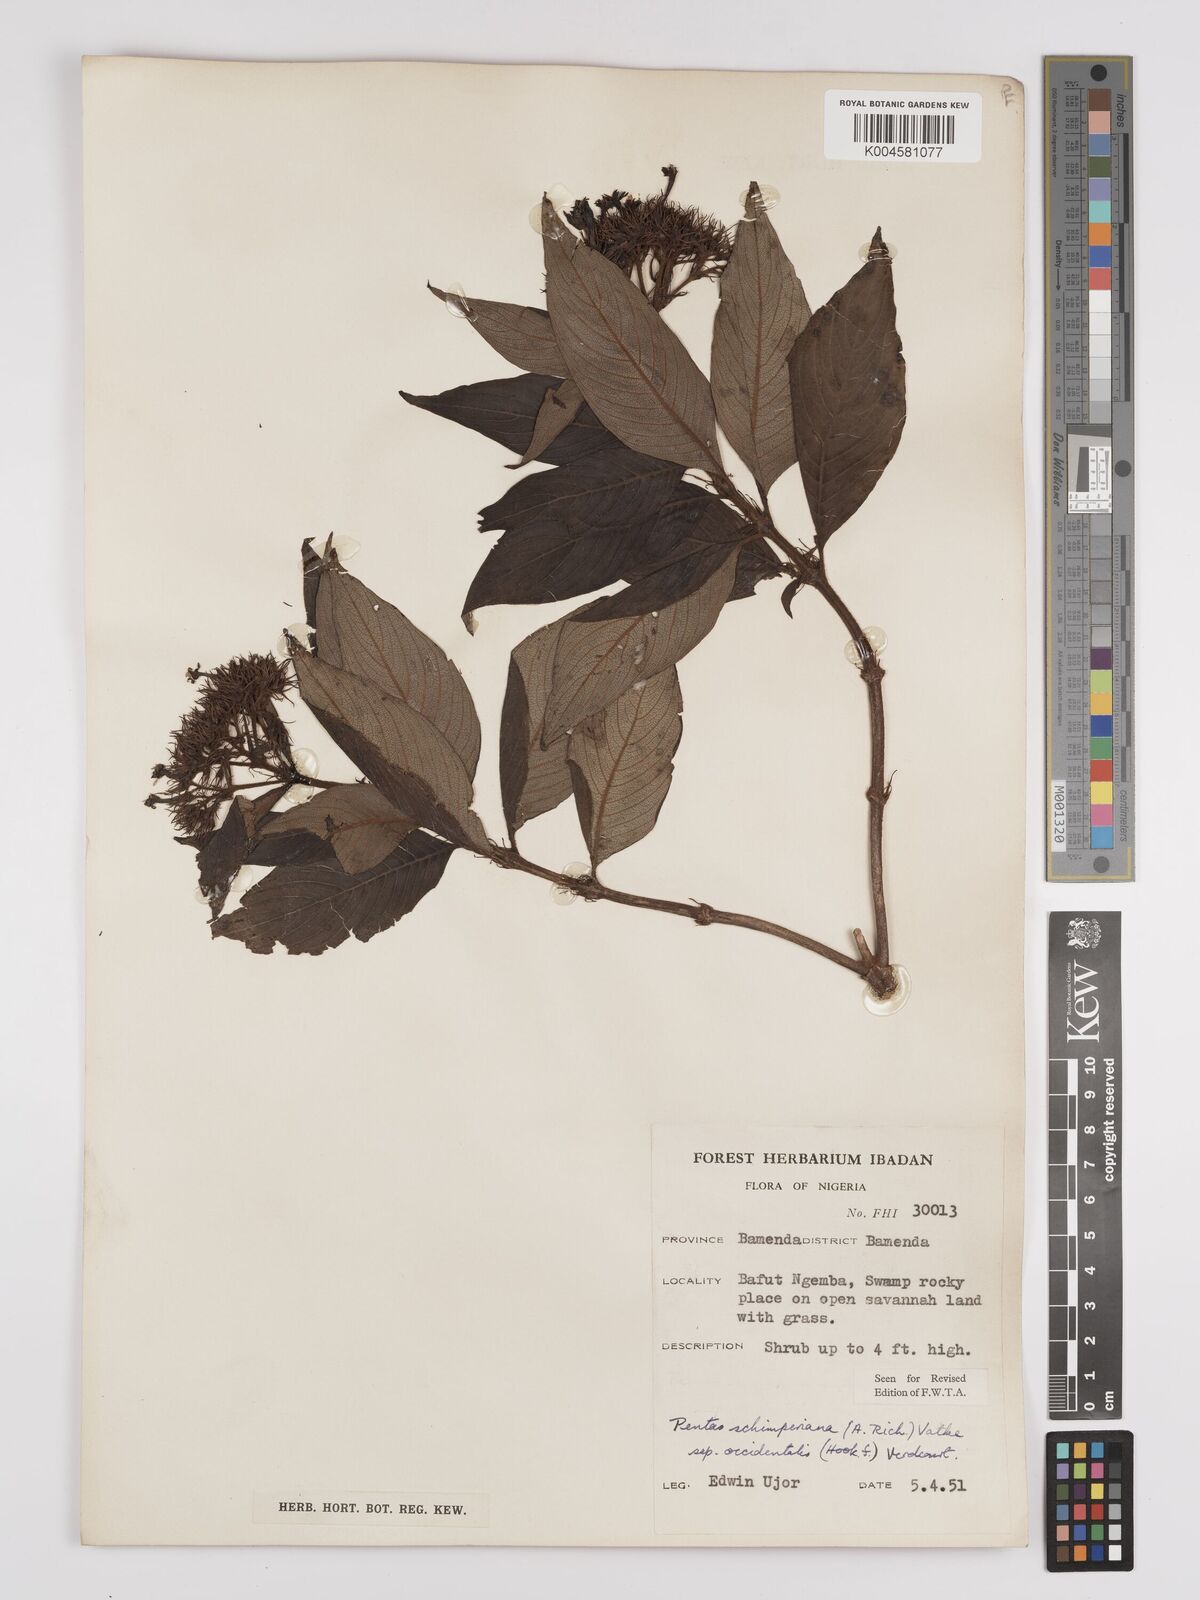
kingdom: Plantae
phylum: Tracheophyta
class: Magnoliopsida
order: Gentianales
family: Rubiaceae
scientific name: Rubiaceae
